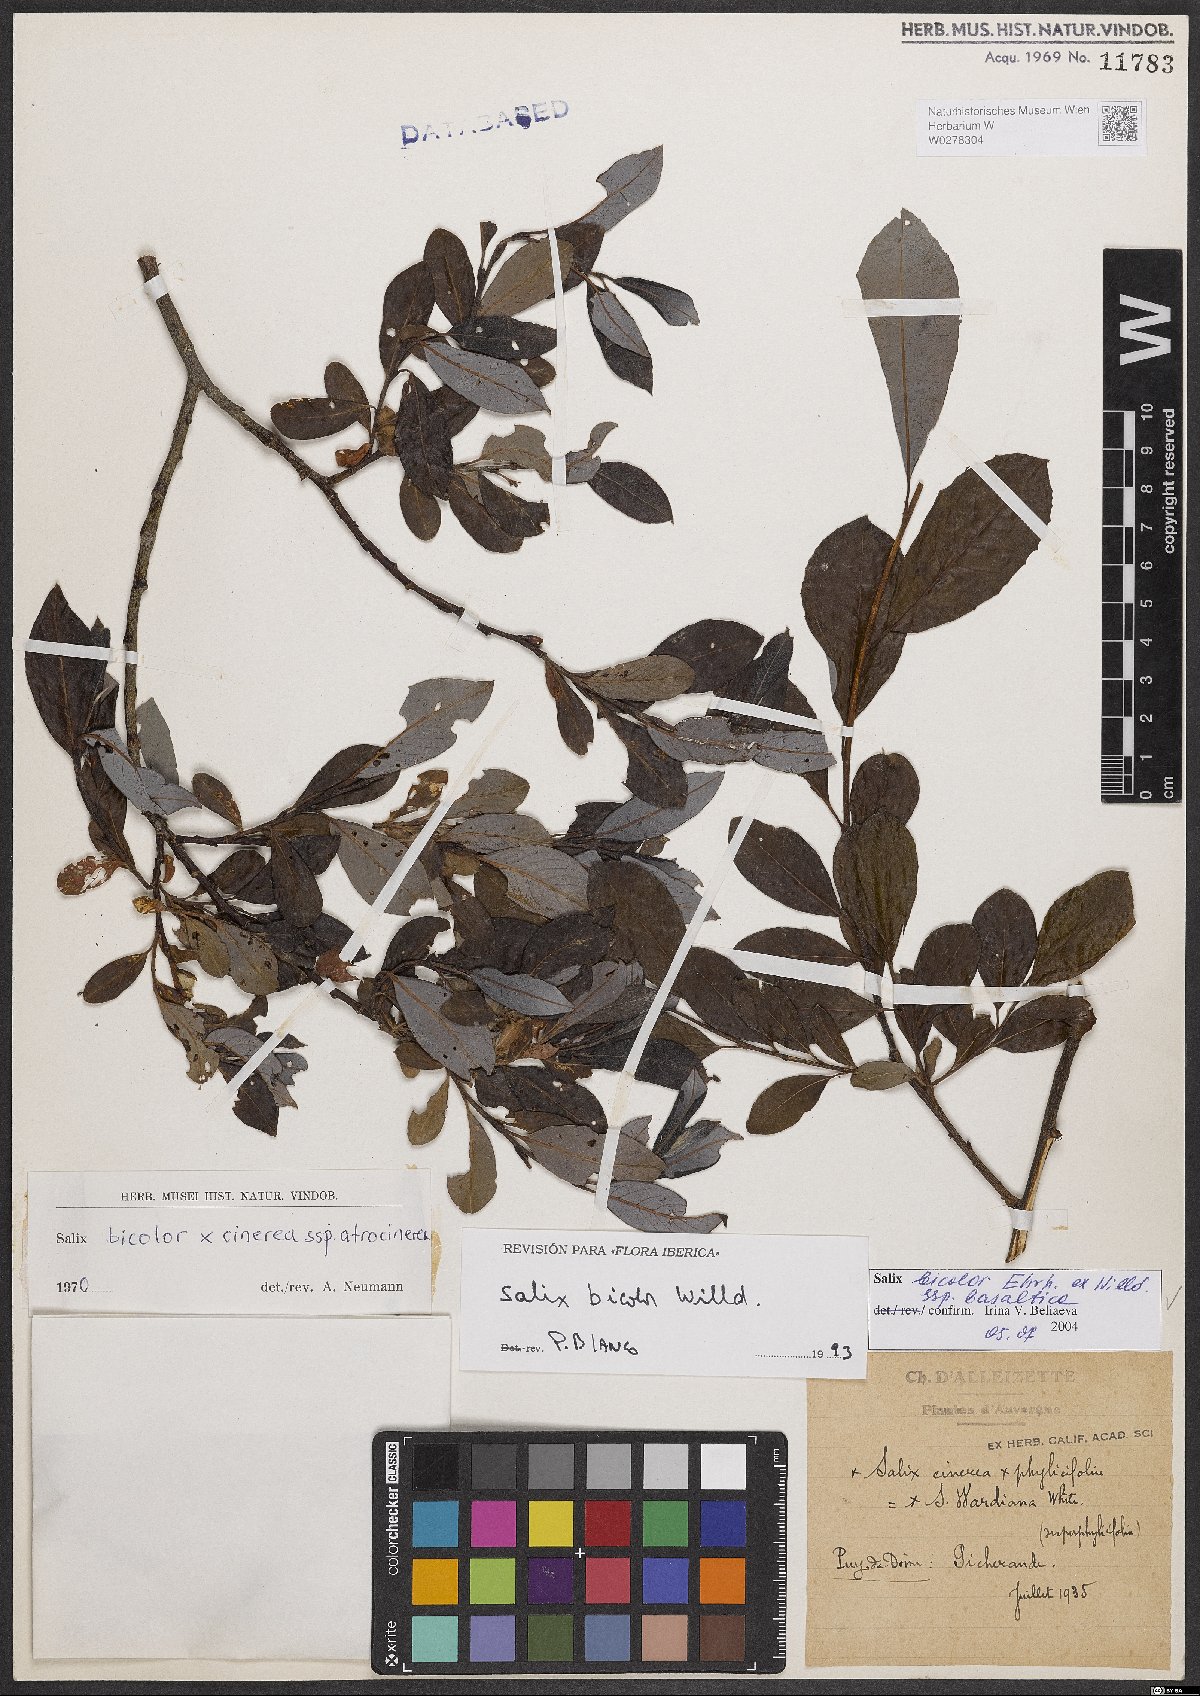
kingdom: Plantae
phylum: Tracheophyta
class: Magnoliopsida
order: Malpighiales
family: Salicaceae
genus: Salix
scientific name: Salix basaltica
